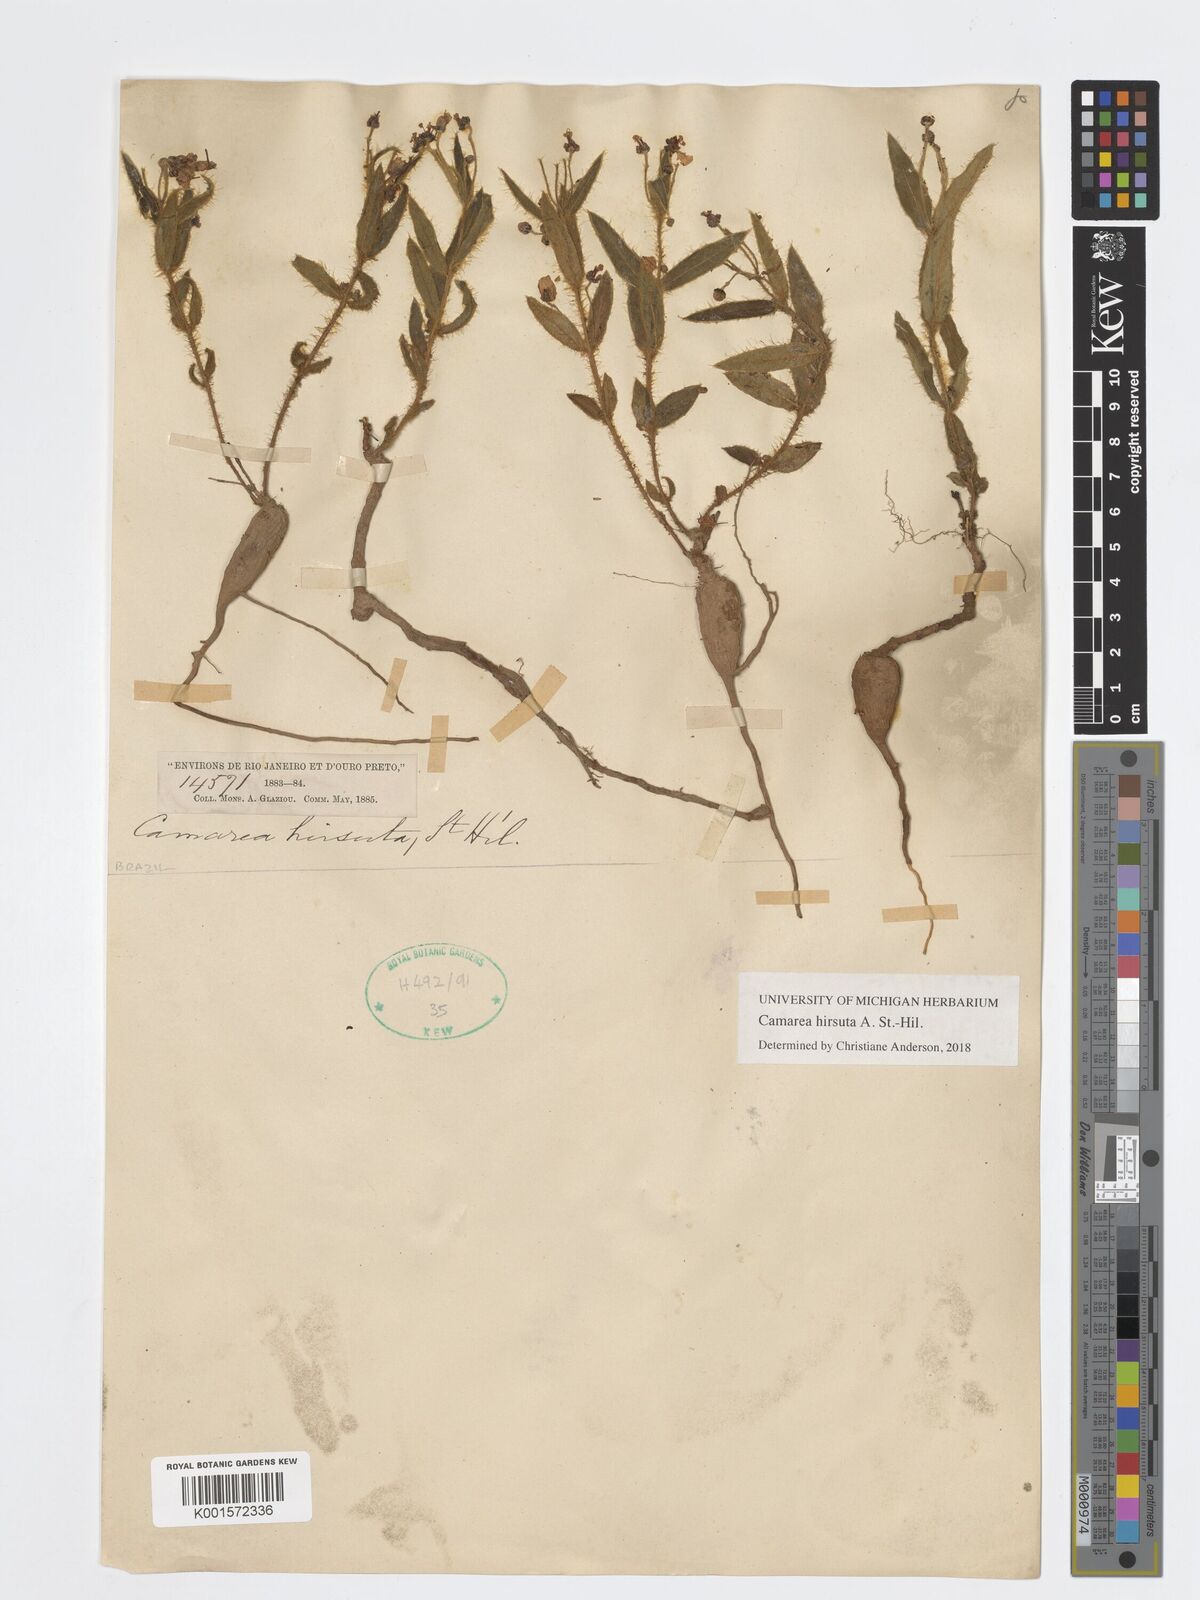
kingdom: Plantae
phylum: Tracheophyta
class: Magnoliopsida
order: Malpighiales
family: Malpighiaceae
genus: Camarea
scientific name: Camarea hirsuta
